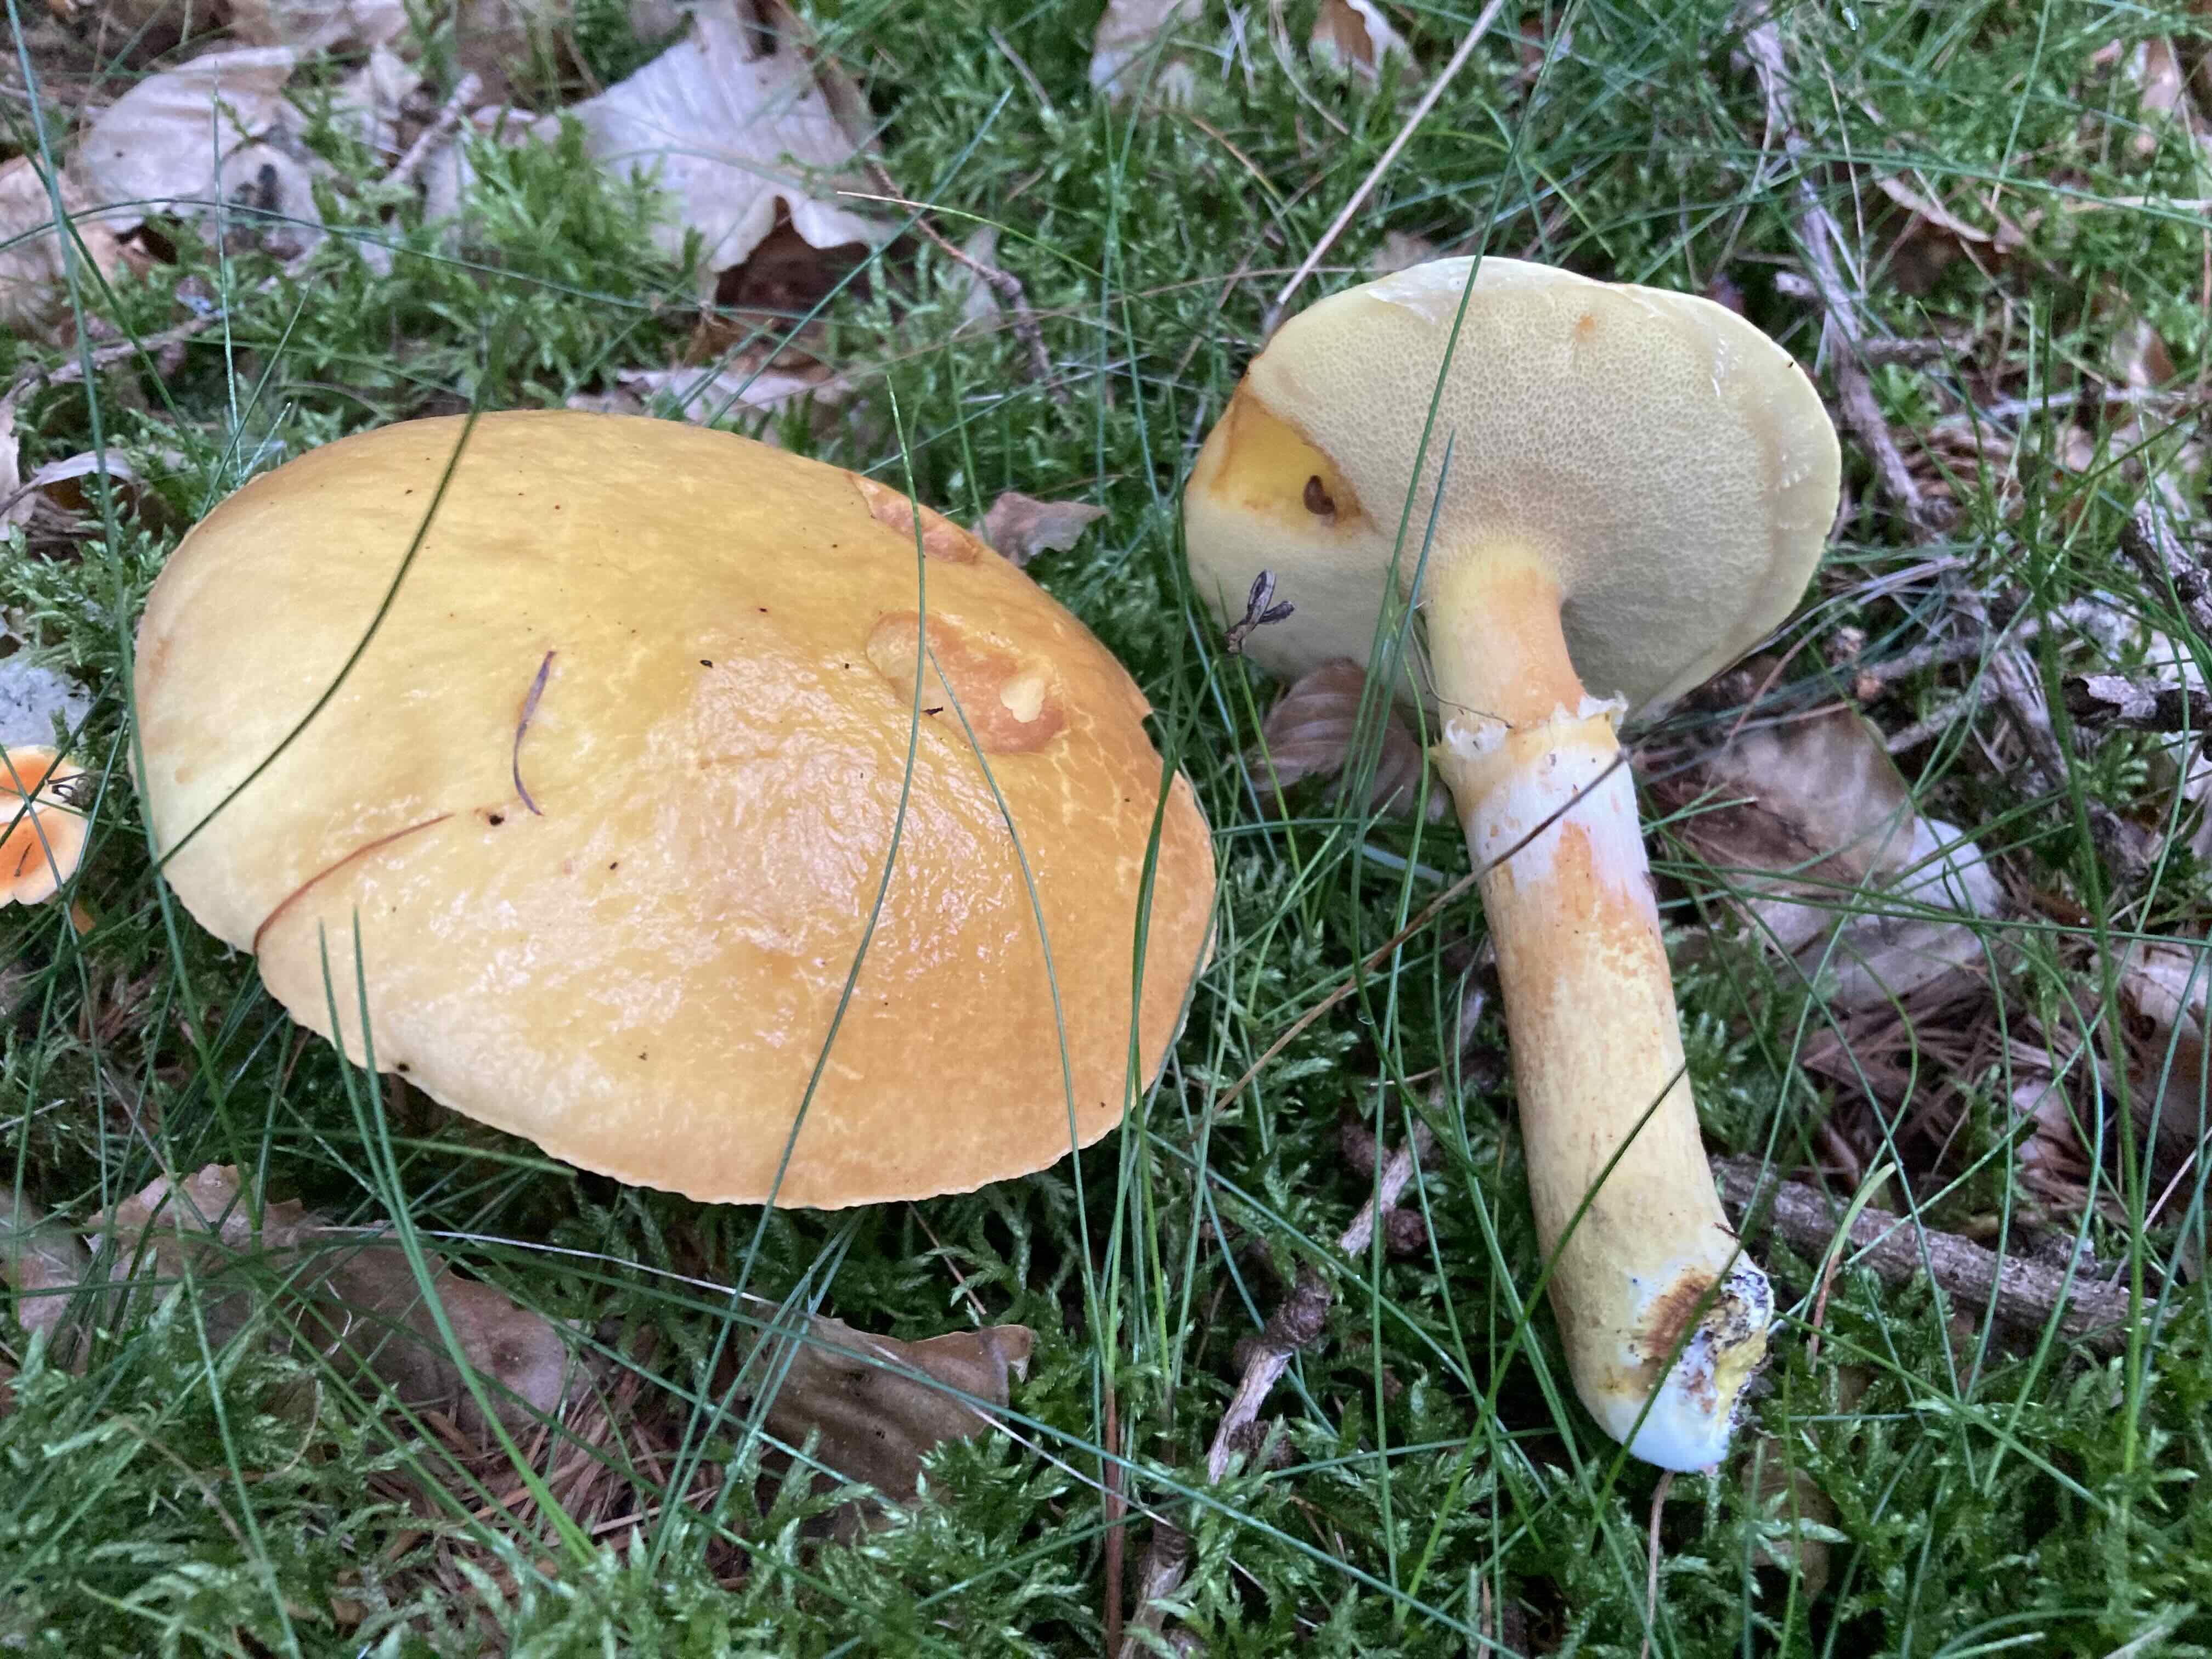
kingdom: Fungi
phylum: Basidiomycota
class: Agaricomycetes
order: Boletales
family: Suillaceae
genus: Suillus
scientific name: Suillus grevillei
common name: lærke-slimrørhat
